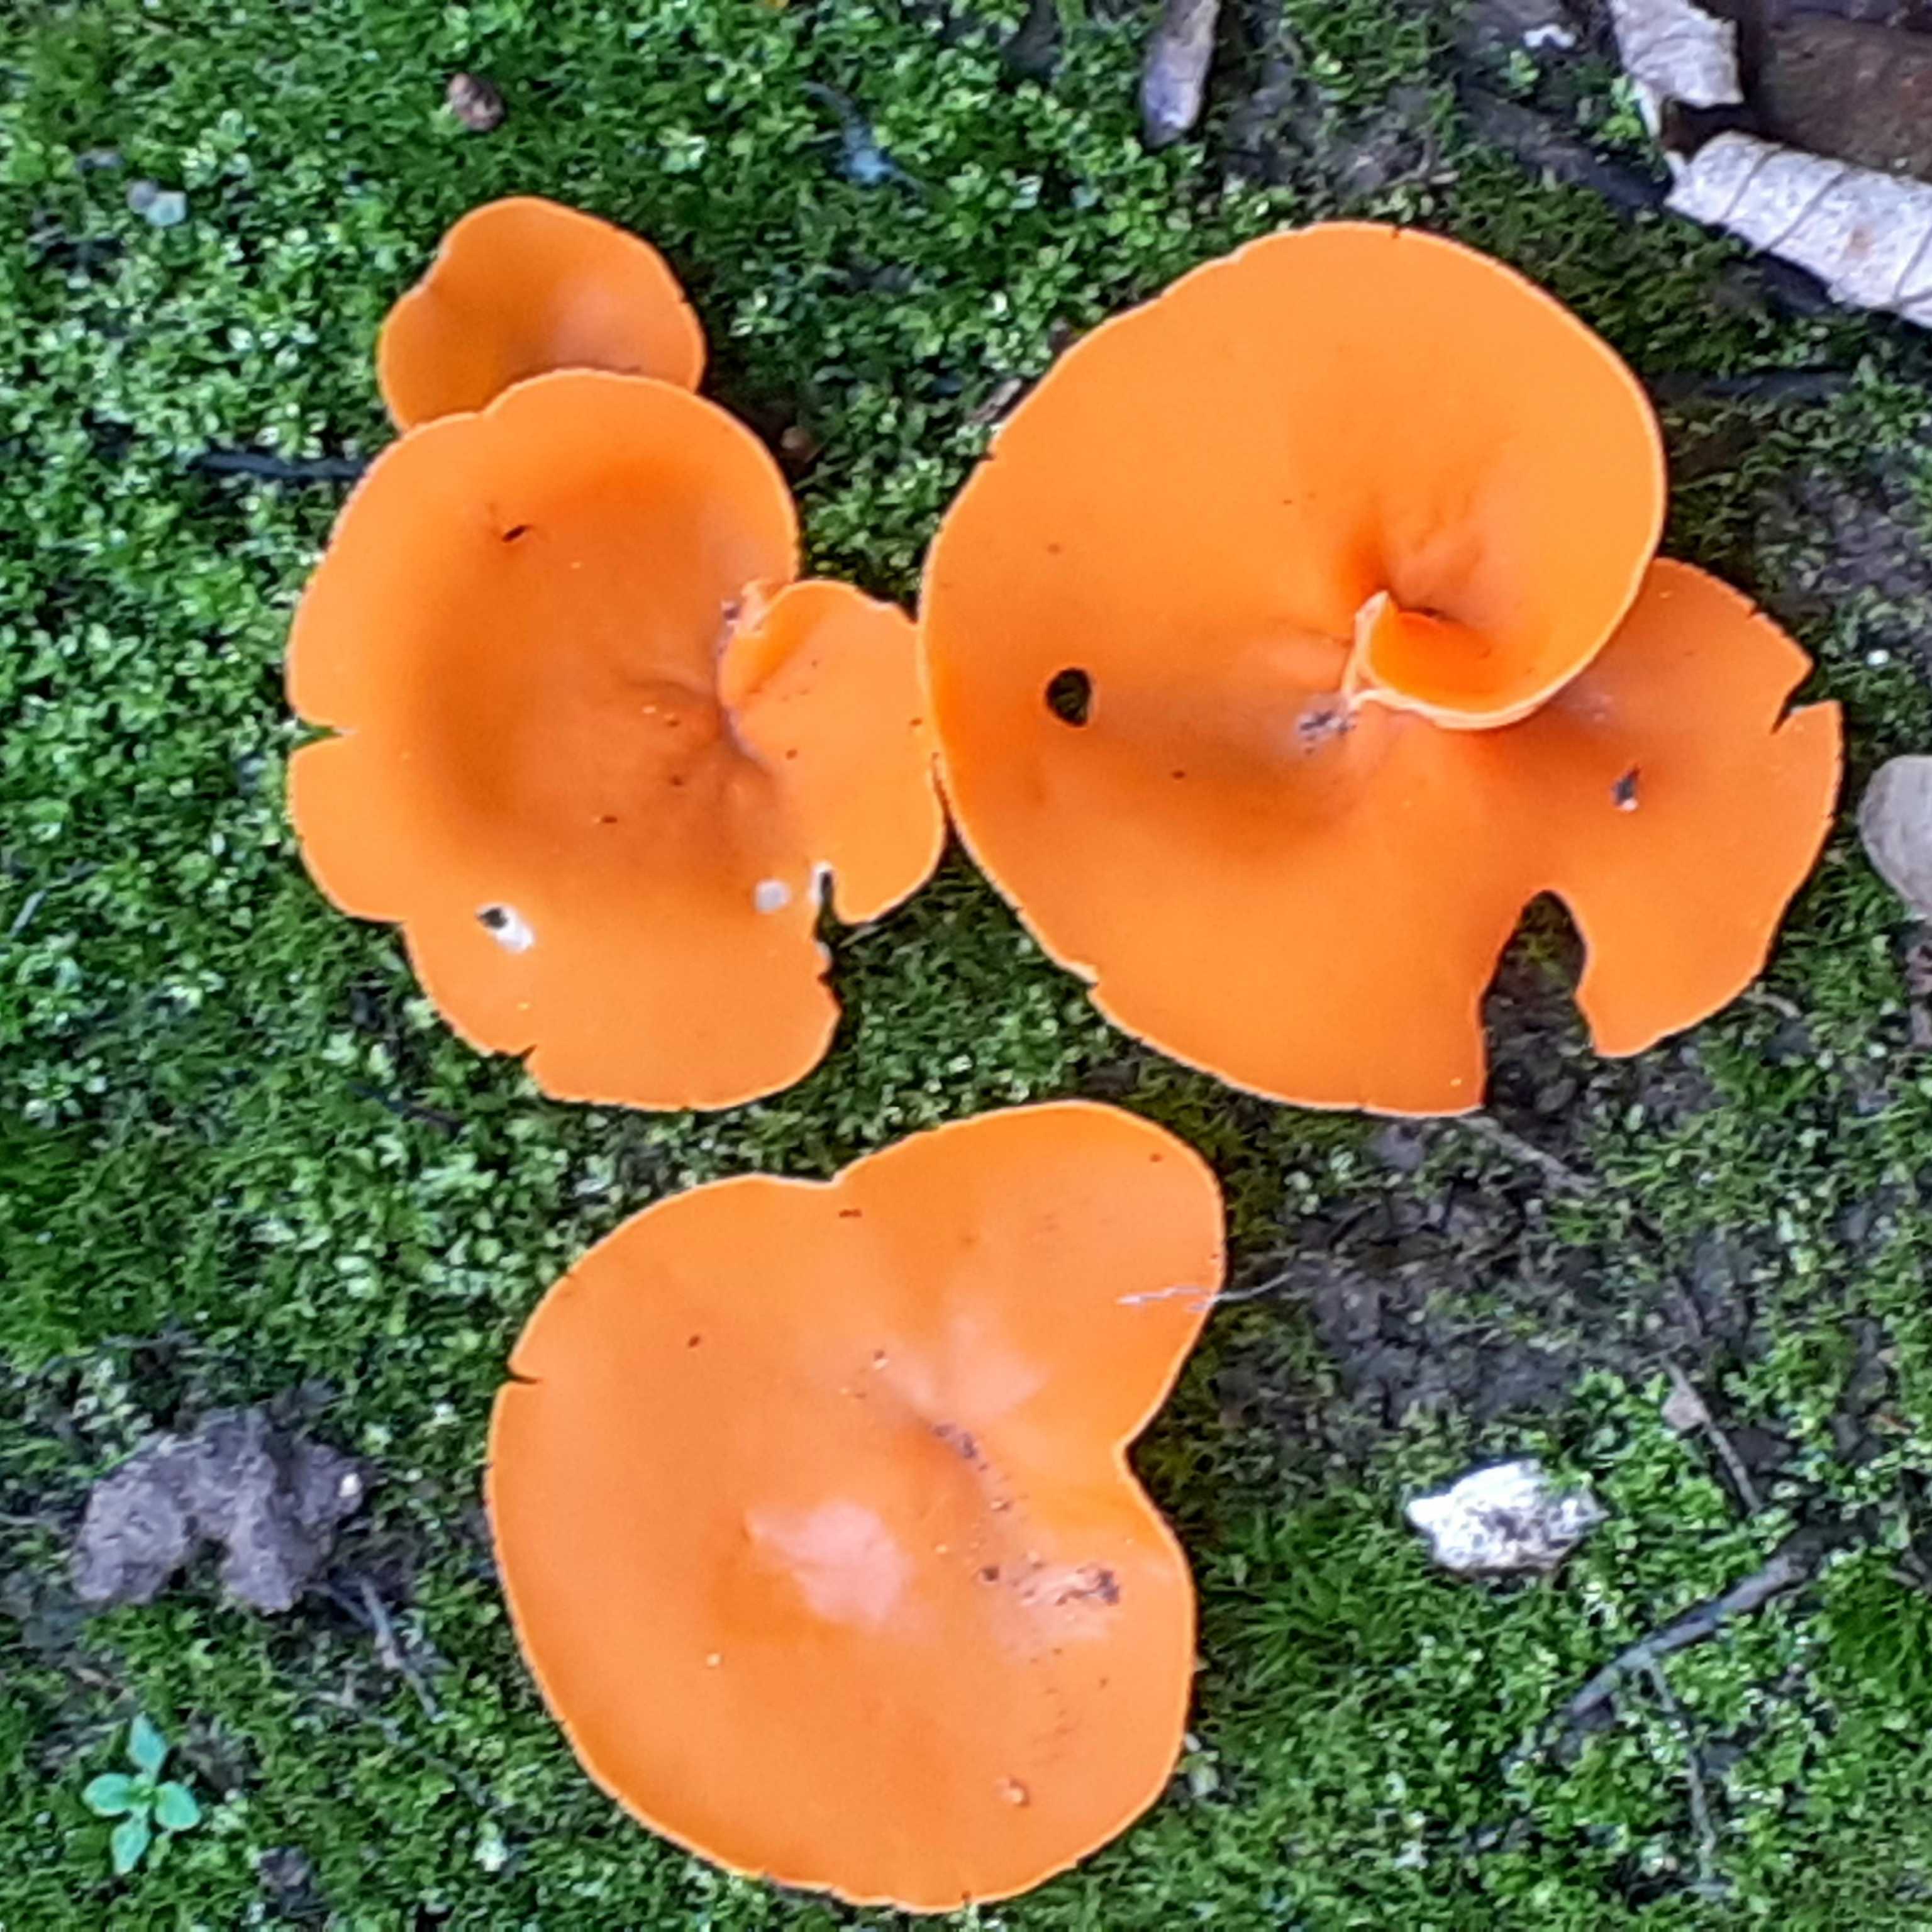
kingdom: Fungi
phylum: Ascomycota
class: Pezizomycetes
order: Pezizales
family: Pyronemataceae
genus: Aleuria
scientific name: Aleuria aurantia
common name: almindelig orangebæger
